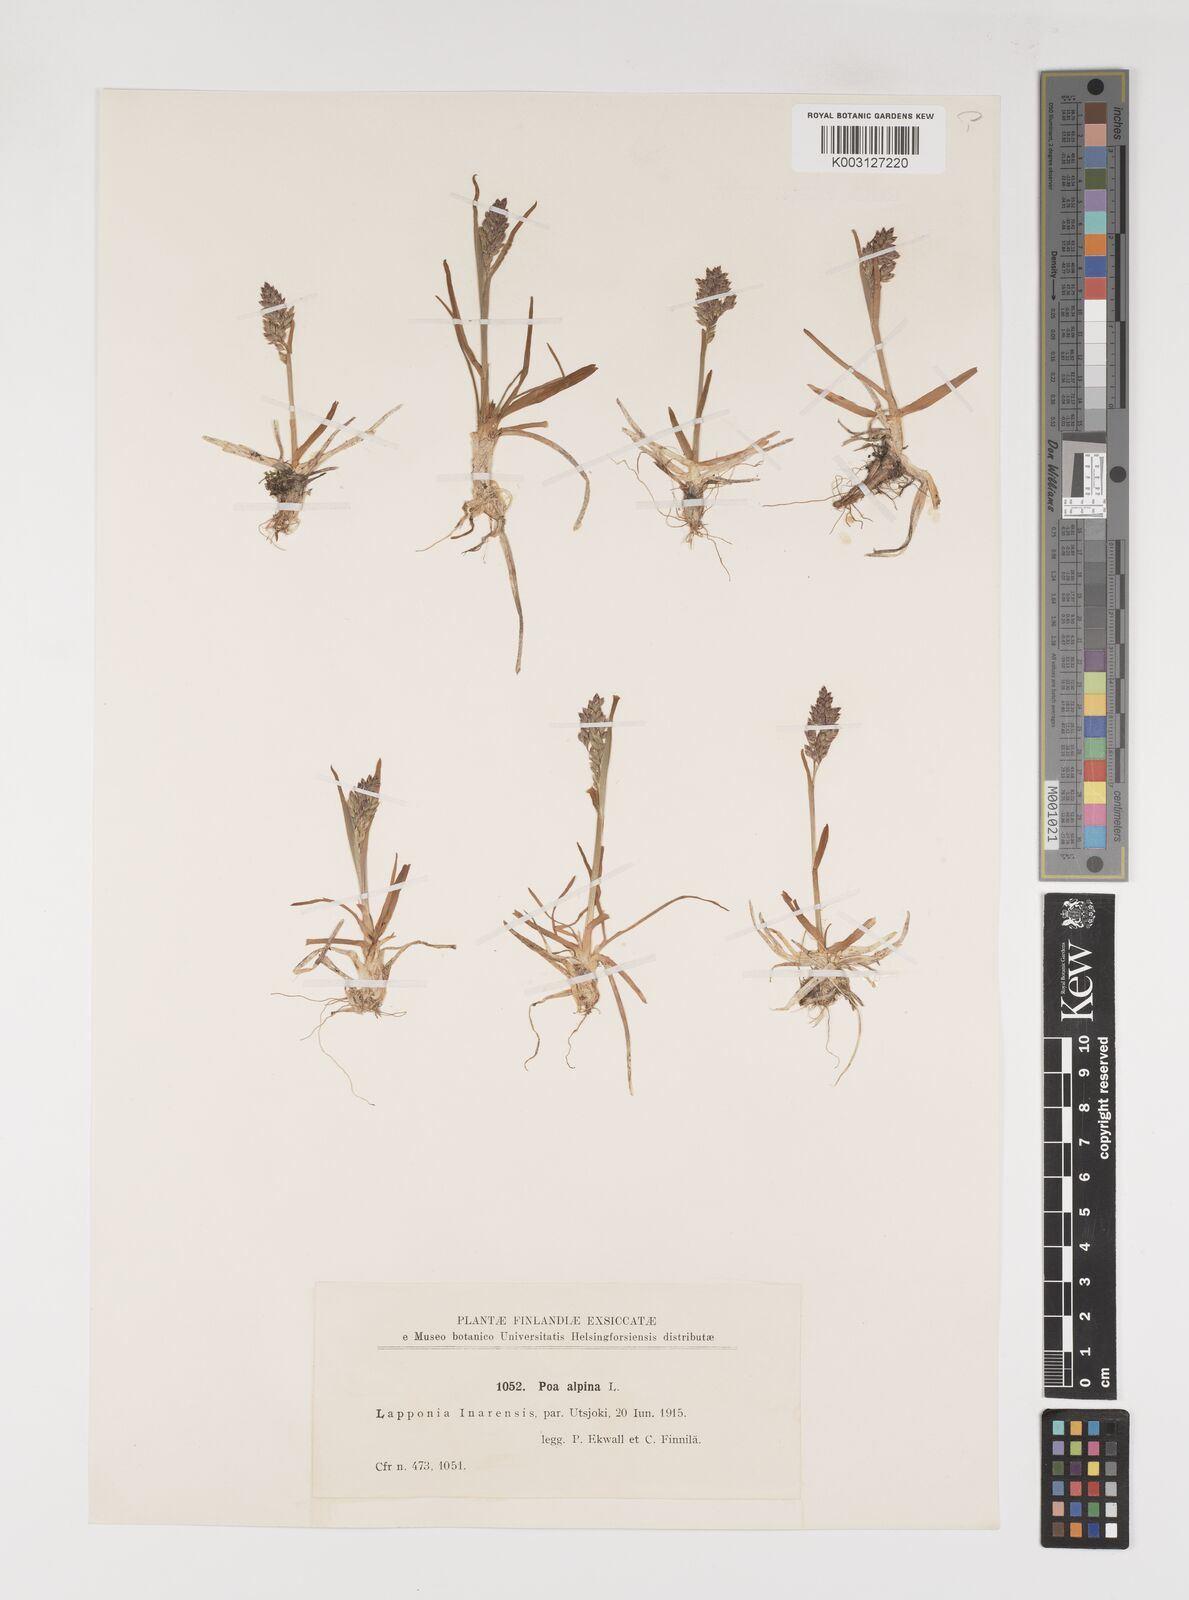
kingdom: Plantae
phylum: Tracheophyta
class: Liliopsida
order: Poales
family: Poaceae
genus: Poa
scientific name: Poa alpina
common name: Alpine bluegrass
